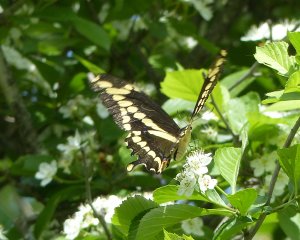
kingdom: Animalia
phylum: Arthropoda
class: Insecta
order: Lepidoptera
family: Papilionidae
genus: Papilio
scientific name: Papilio cresphontes
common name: Eastern Giant Swallowtail
